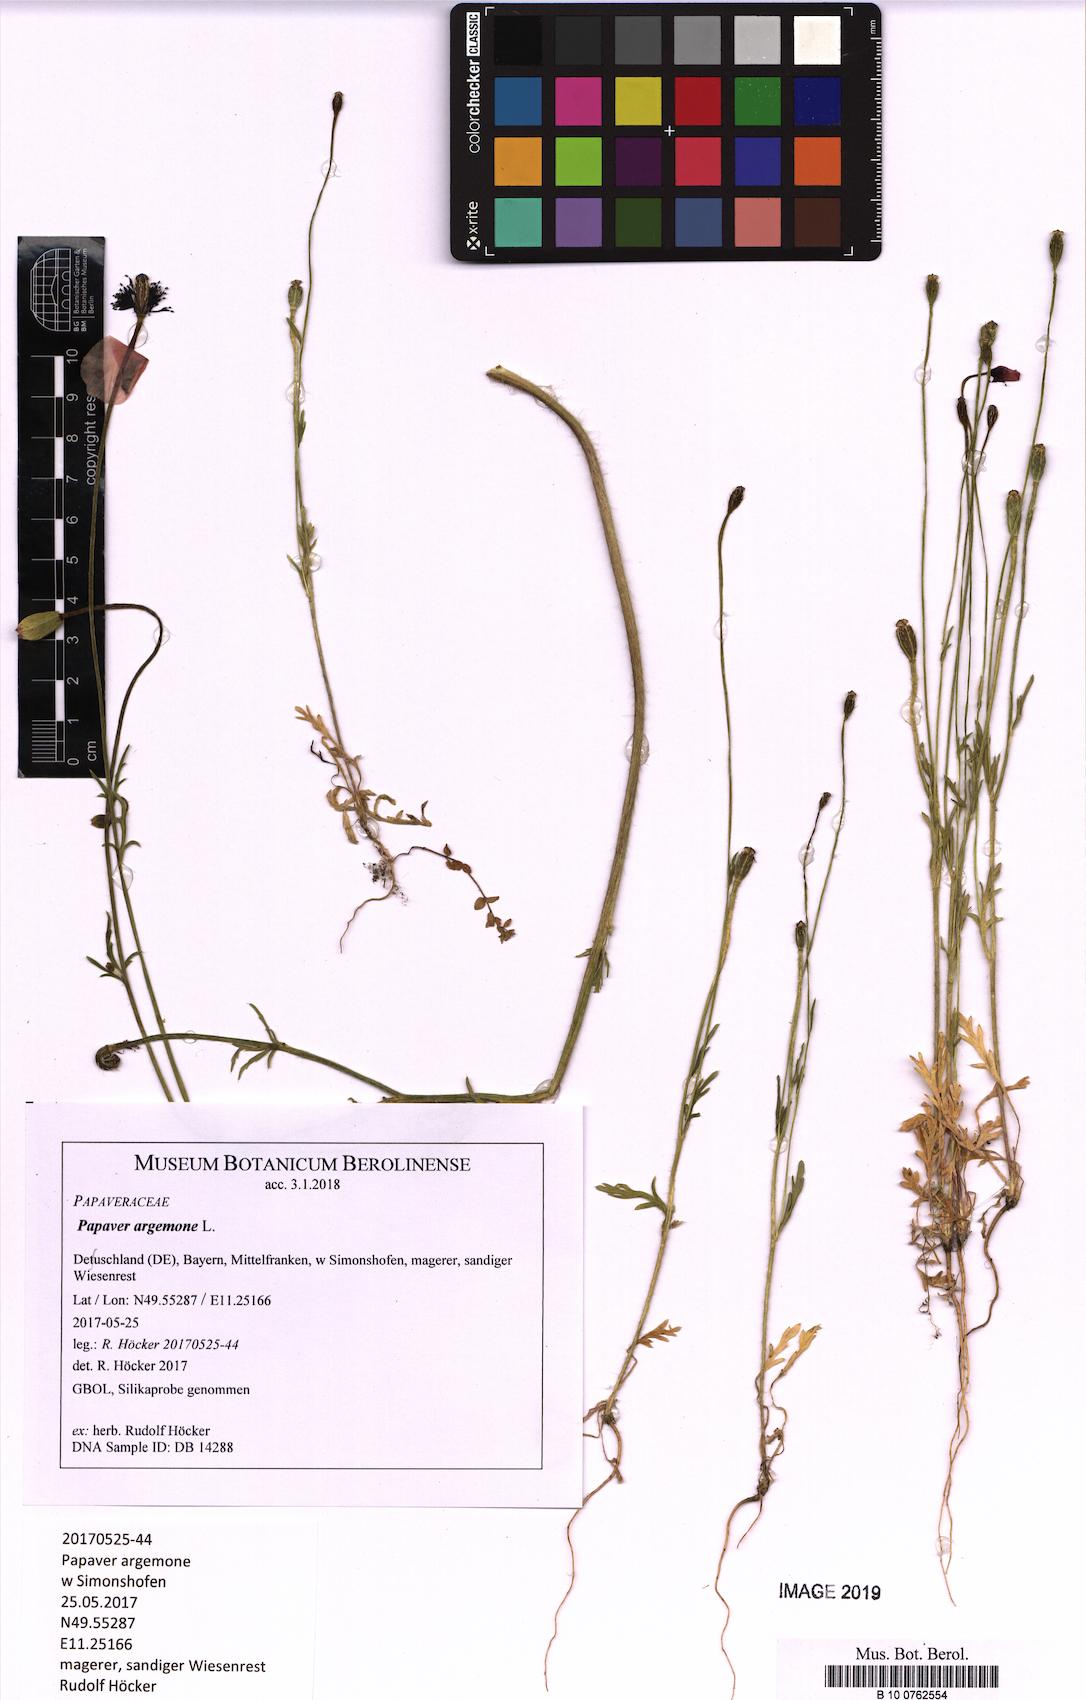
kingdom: Plantae
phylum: Tracheophyta
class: Magnoliopsida
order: Ranunculales
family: Papaveraceae
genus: Roemeria
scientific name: Roemeria argemone
